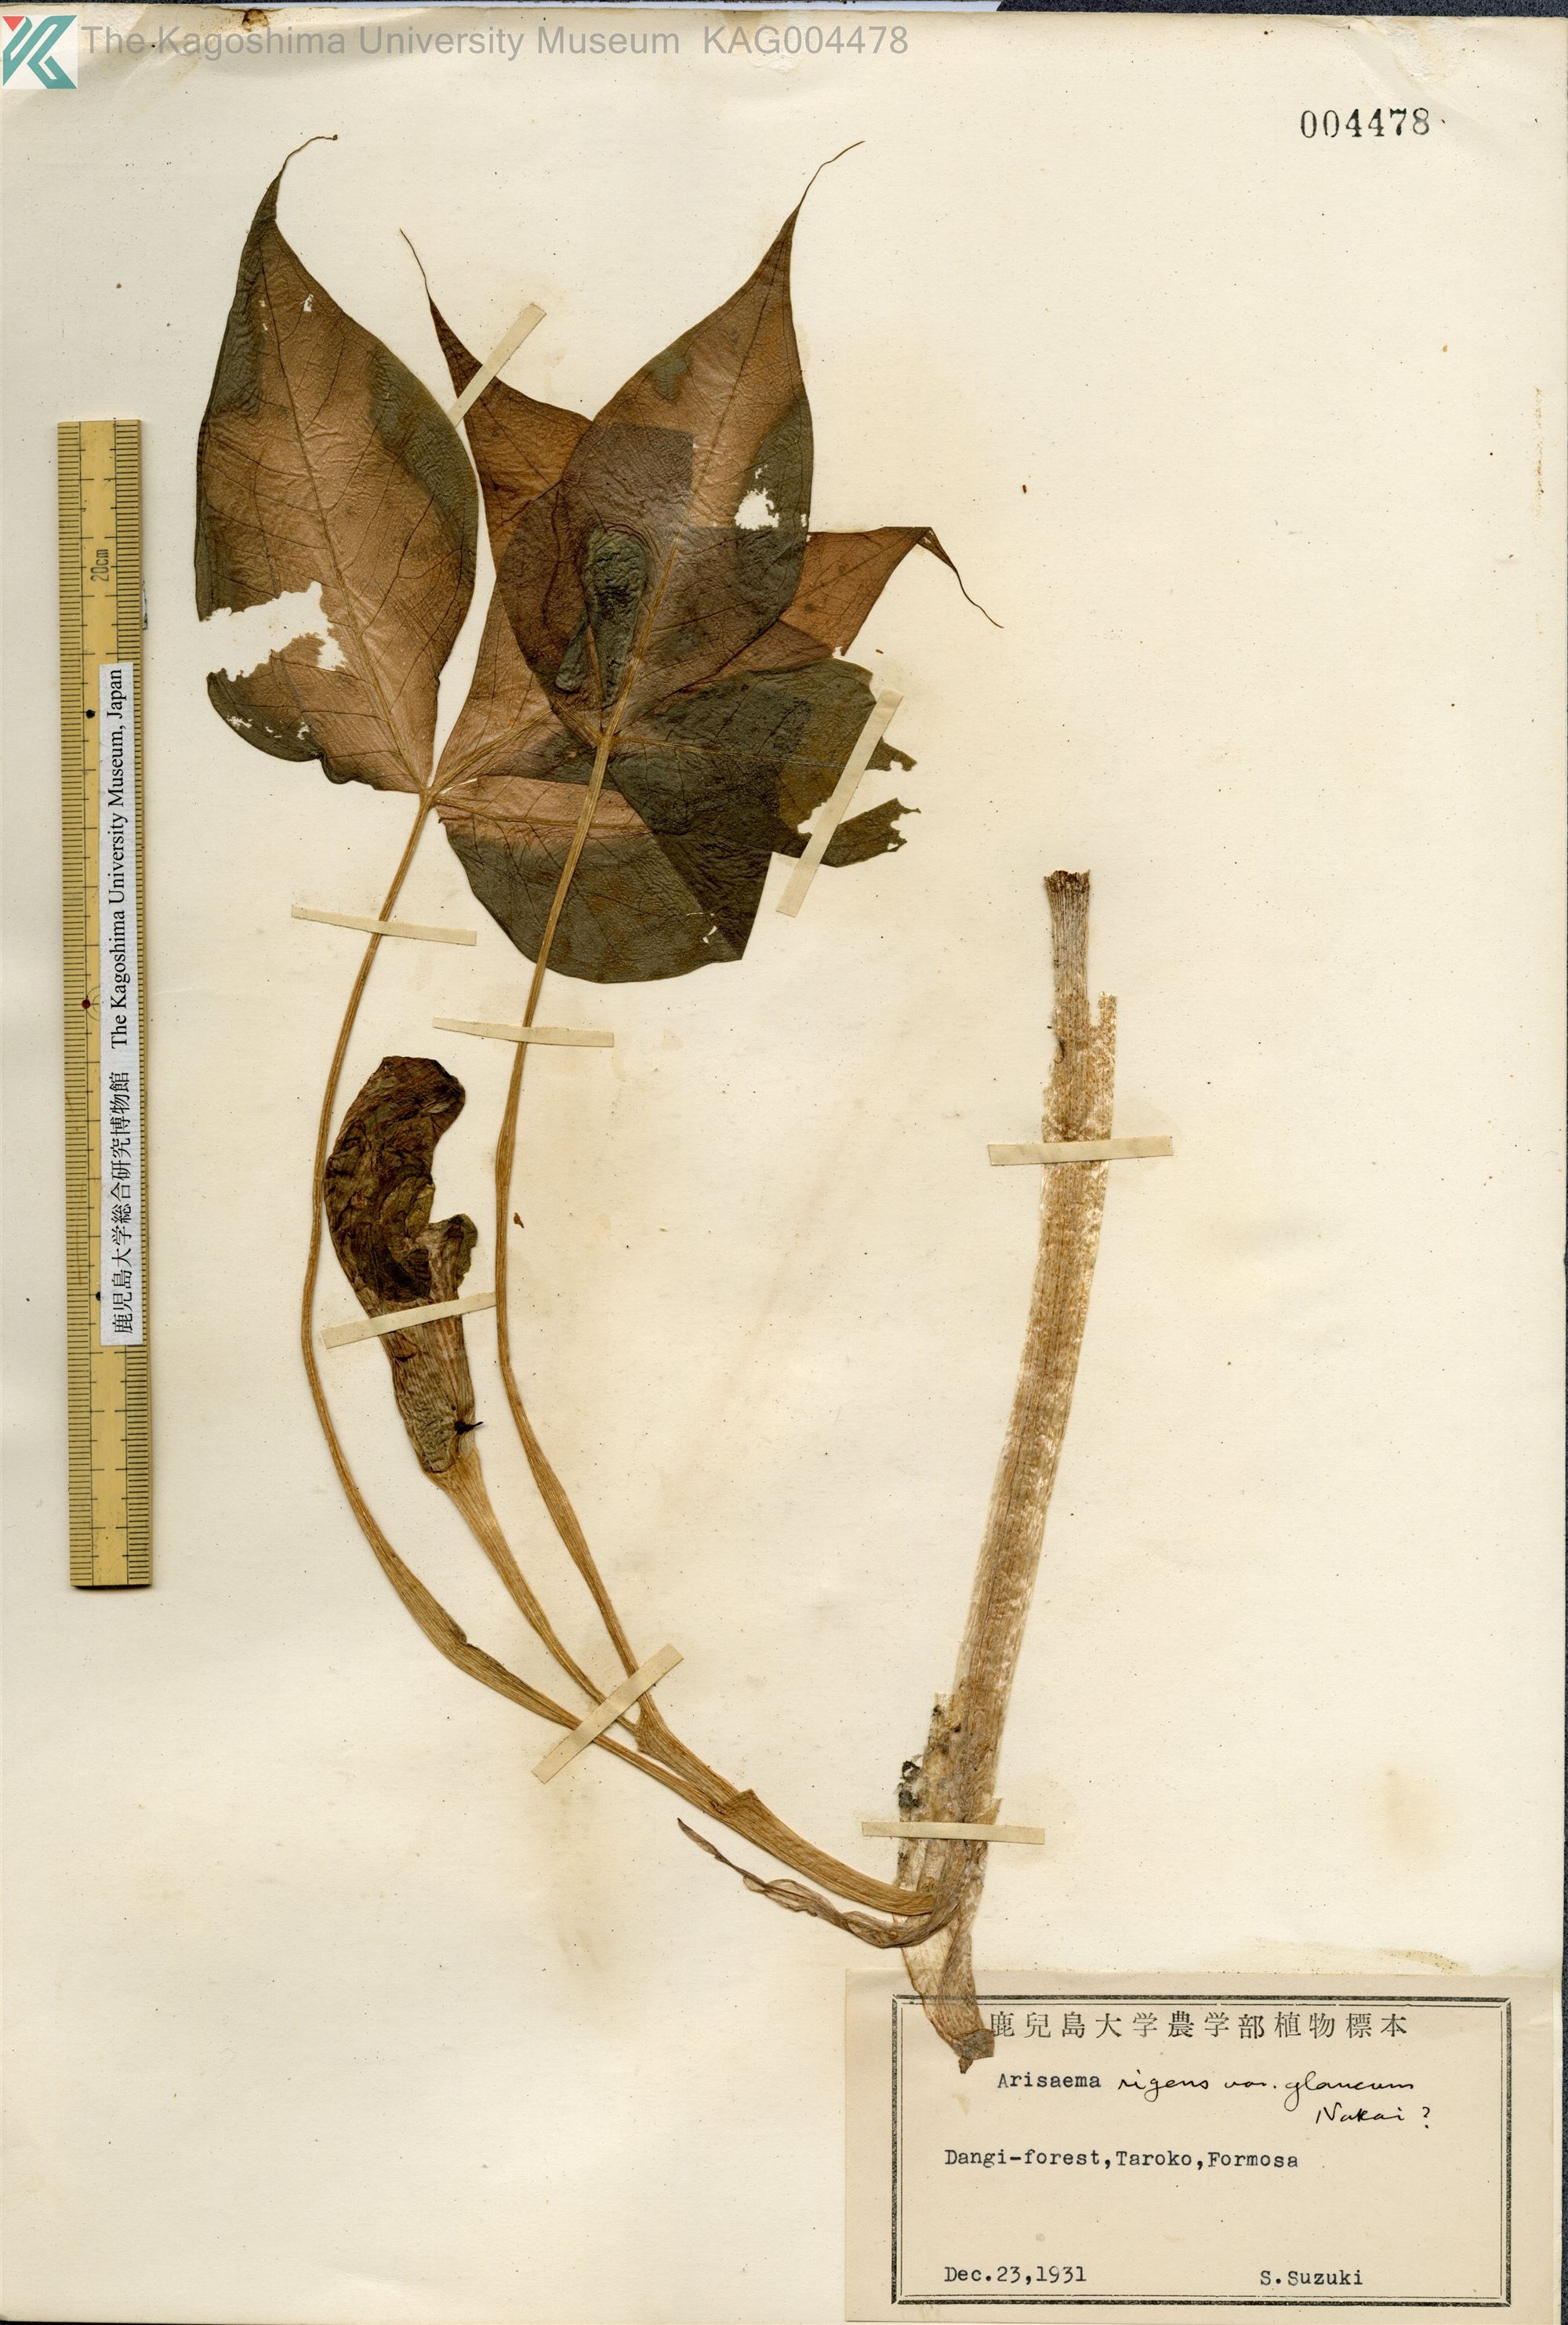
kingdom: Plantae
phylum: Tracheophyta
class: Liliopsida
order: Alismatales
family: Araceae
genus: Arisaema
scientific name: Arisaema ringens
